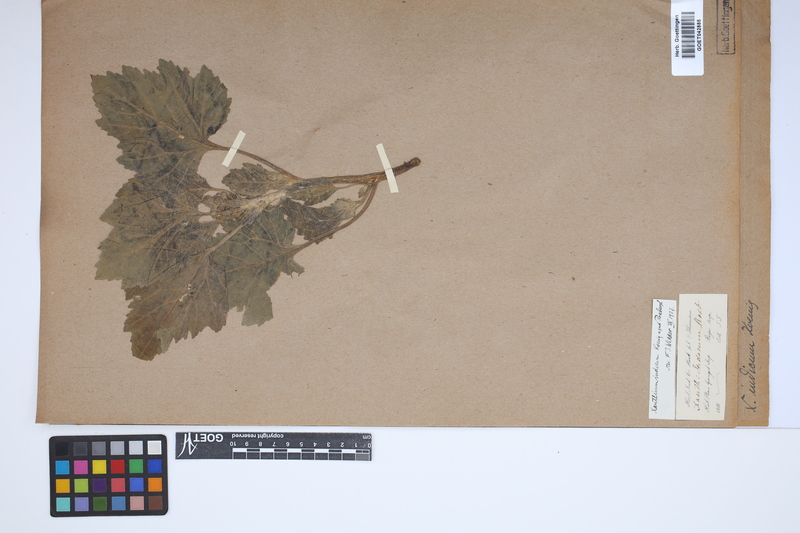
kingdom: Plantae
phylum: Tracheophyta
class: Magnoliopsida
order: Asterales
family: Asteraceae
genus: Xanthium
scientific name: Xanthium strumarium
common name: Rough cocklebur
